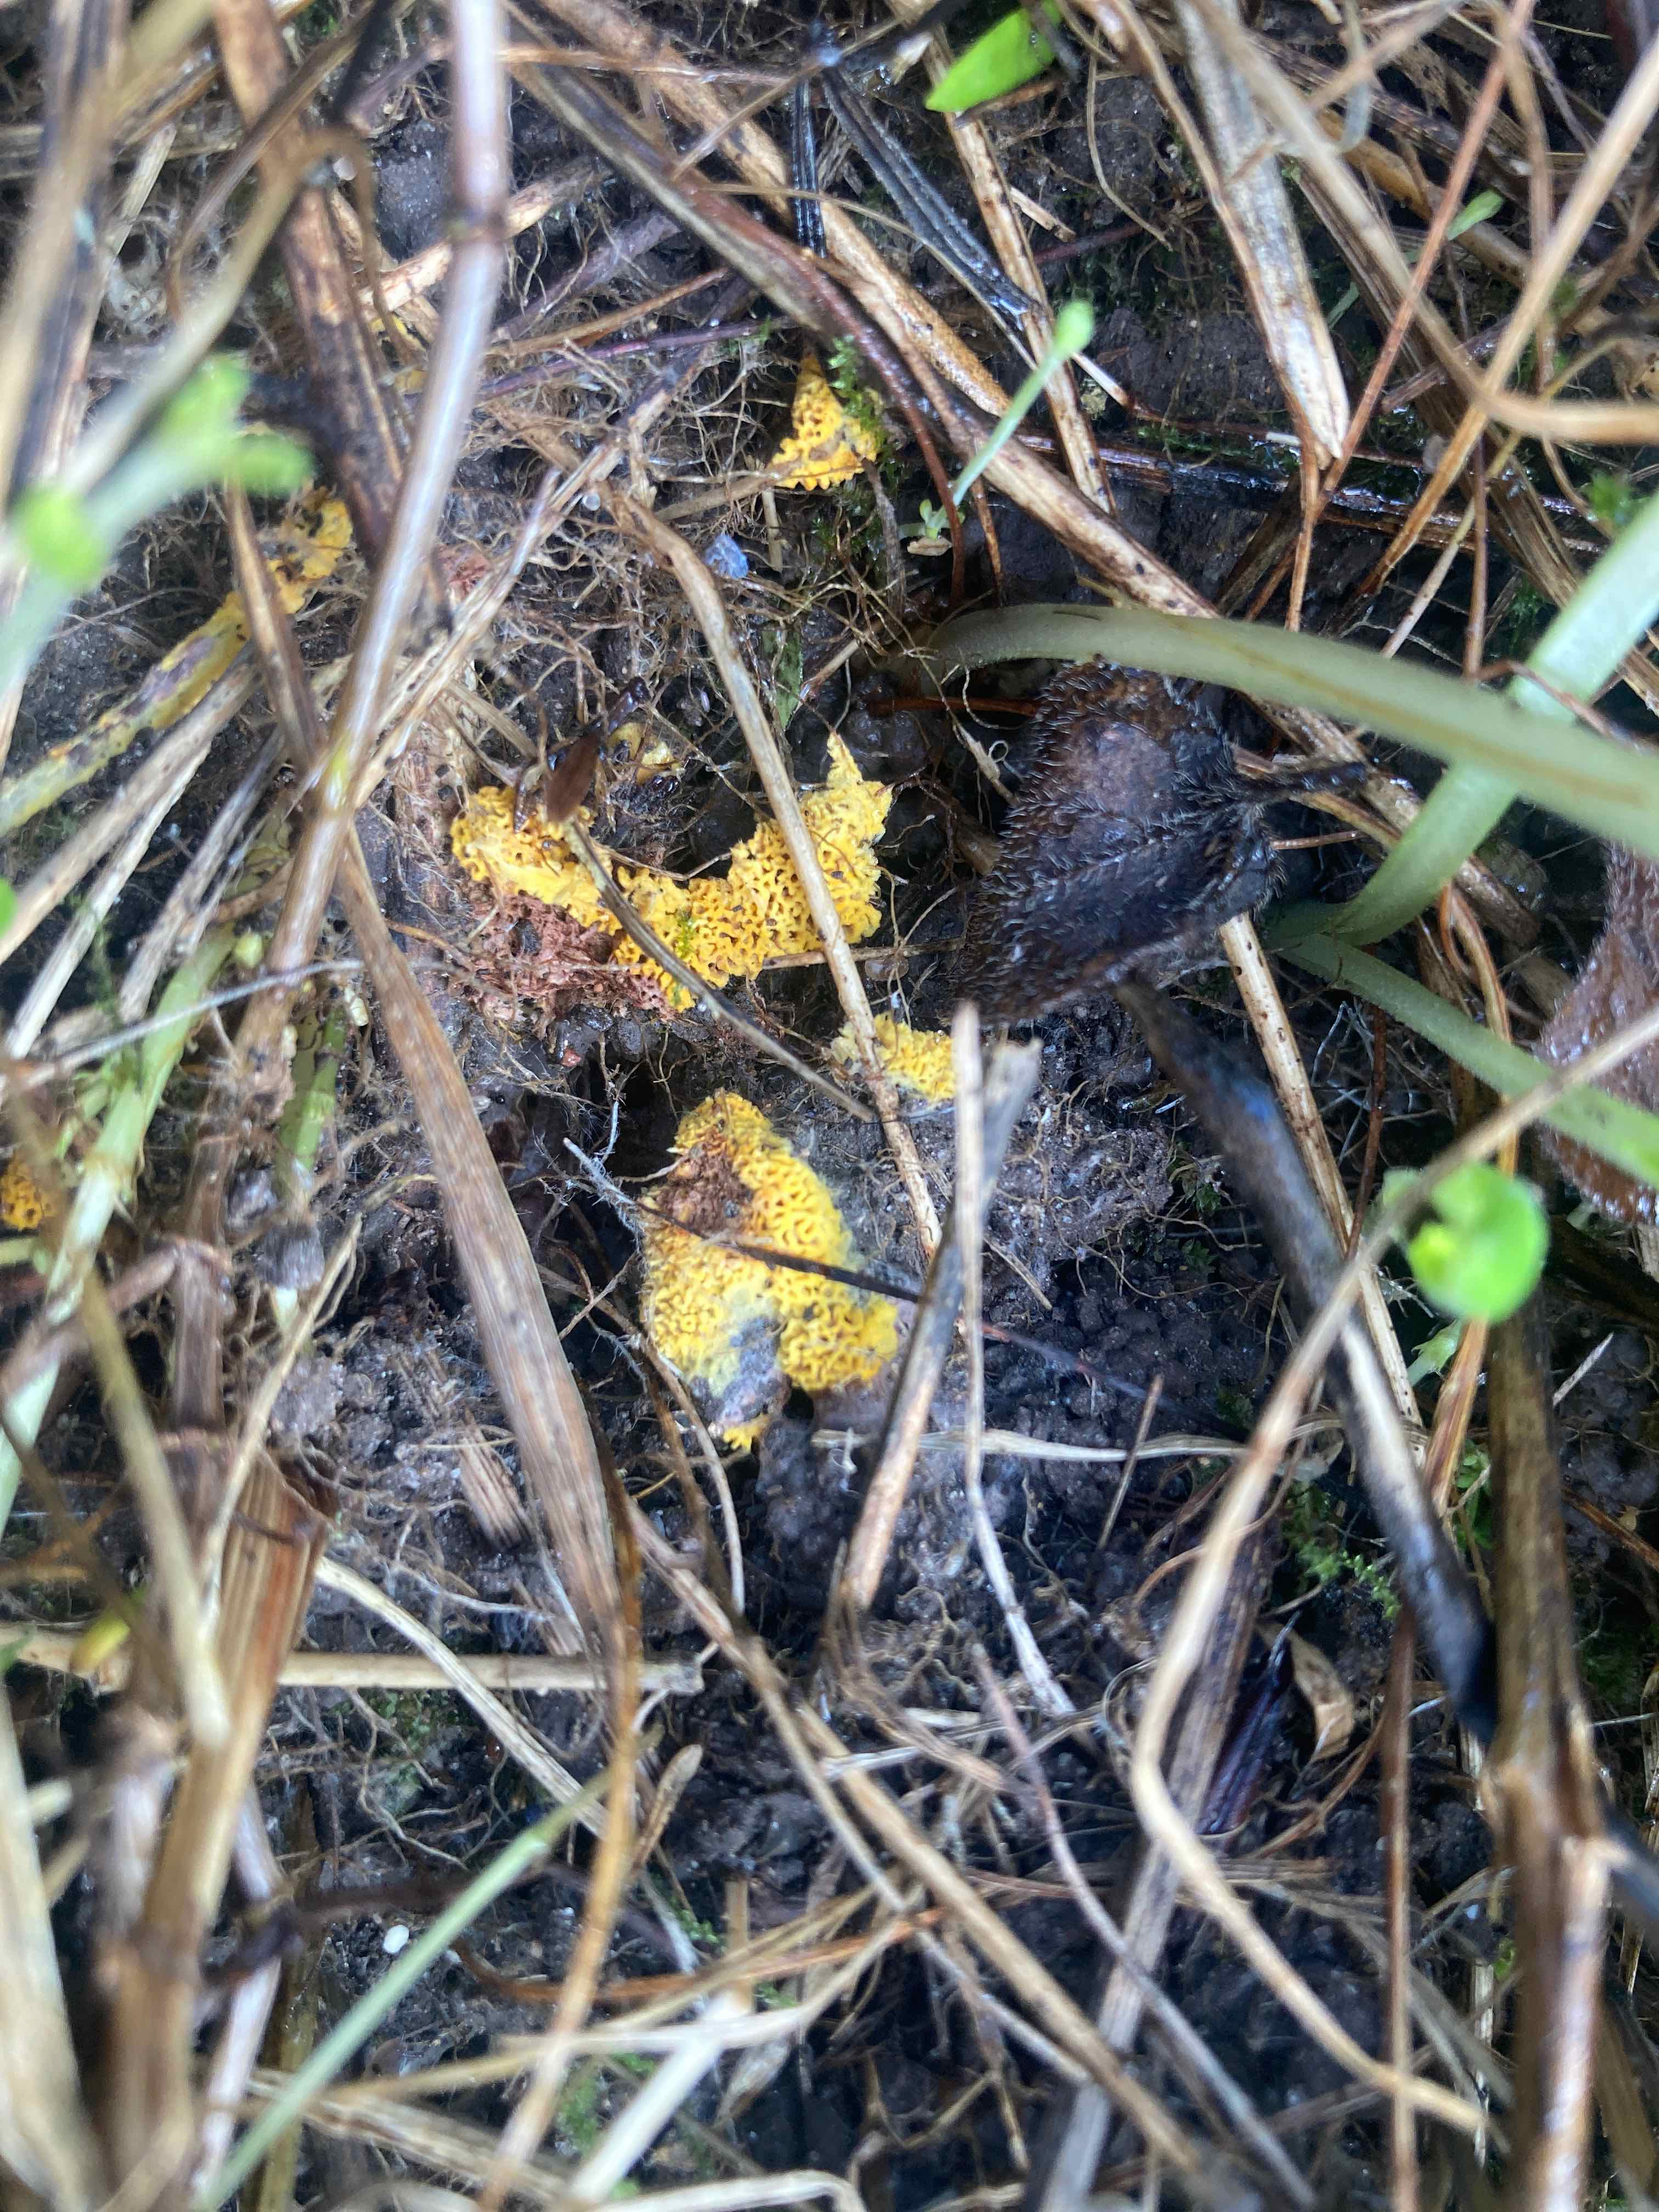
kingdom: Fungi
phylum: Basidiomycota
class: Agaricomycetes
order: Agaricales
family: Stephanosporaceae
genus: Lindtneria
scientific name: Lindtneria trachyspora
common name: labyrint-citrushinde
